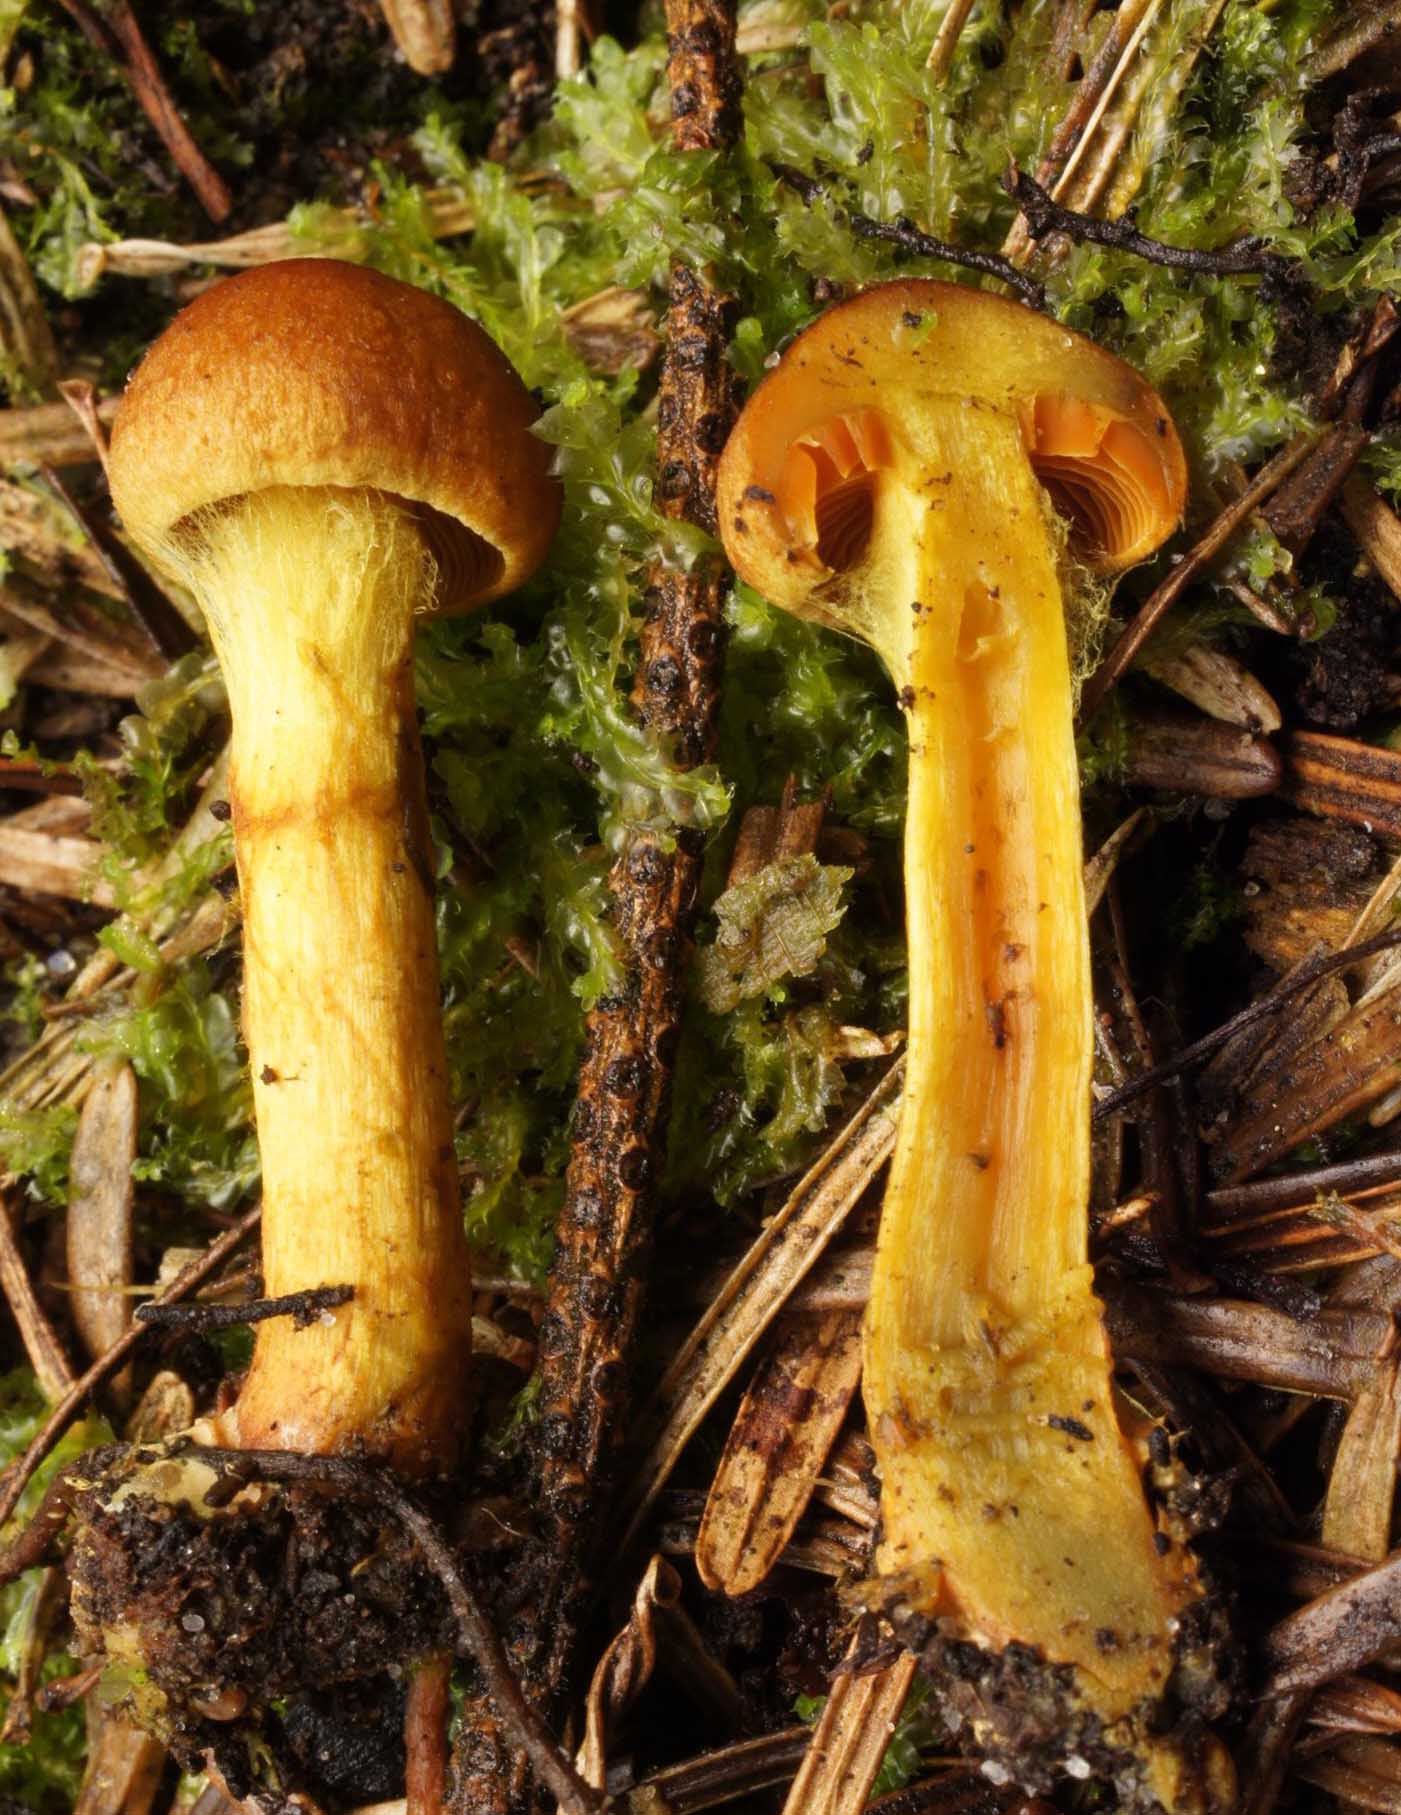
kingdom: Fungi
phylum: Basidiomycota
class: Agaricomycetes
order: Agaricales
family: Cortinariaceae
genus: Cortinarius
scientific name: Cortinarius malicorius
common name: grønkødet slørhat
